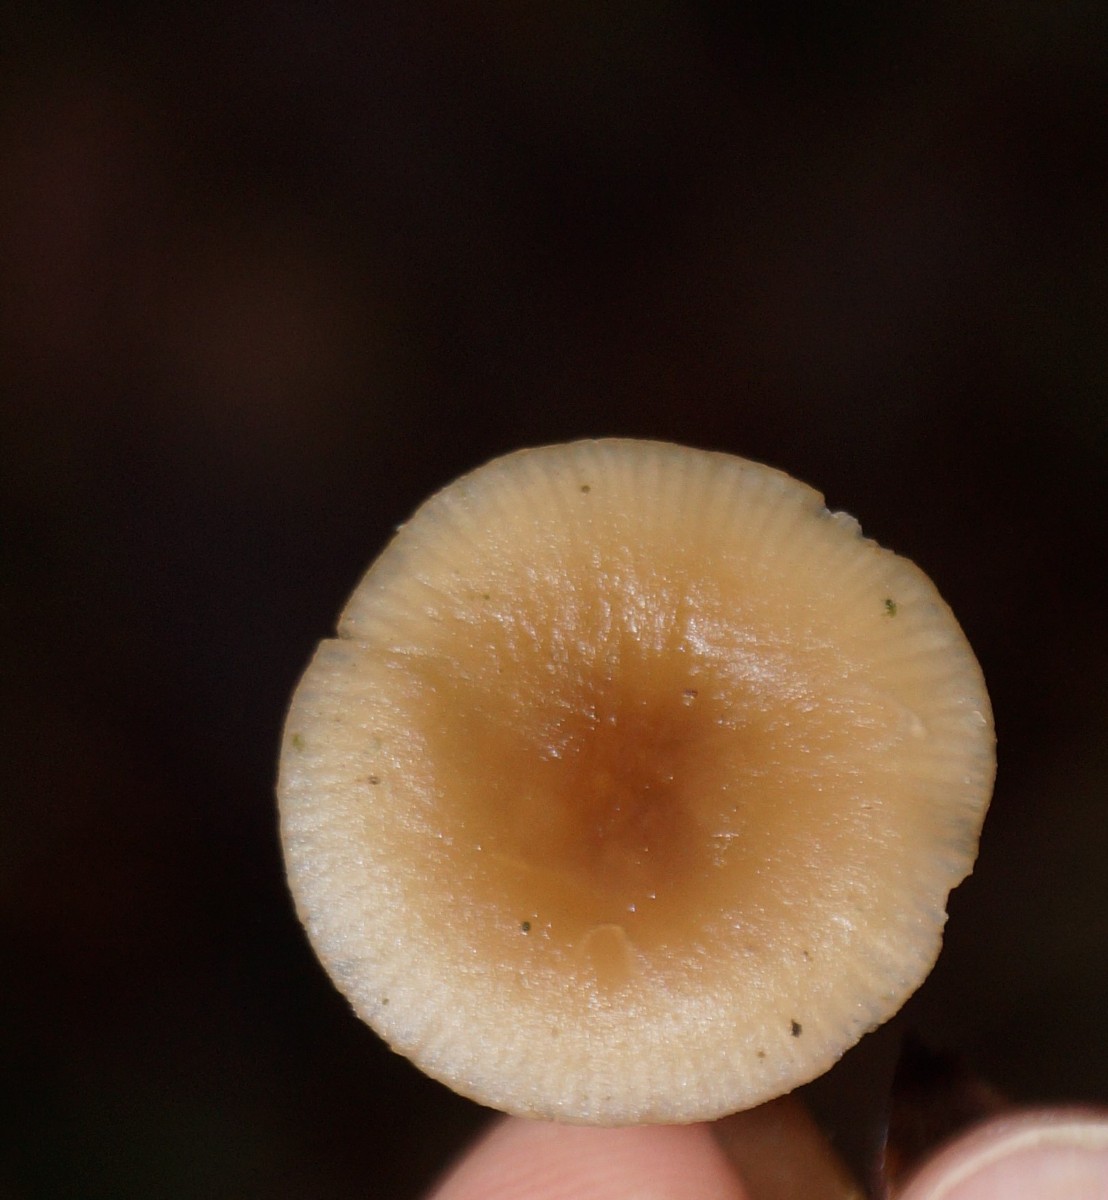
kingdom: Fungi
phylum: Basidiomycota
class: Agaricomycetes
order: Agaricales
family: Tricholomataceae
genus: Clitocybe
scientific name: Clitocybe fragrans
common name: vellugtende tragthat
